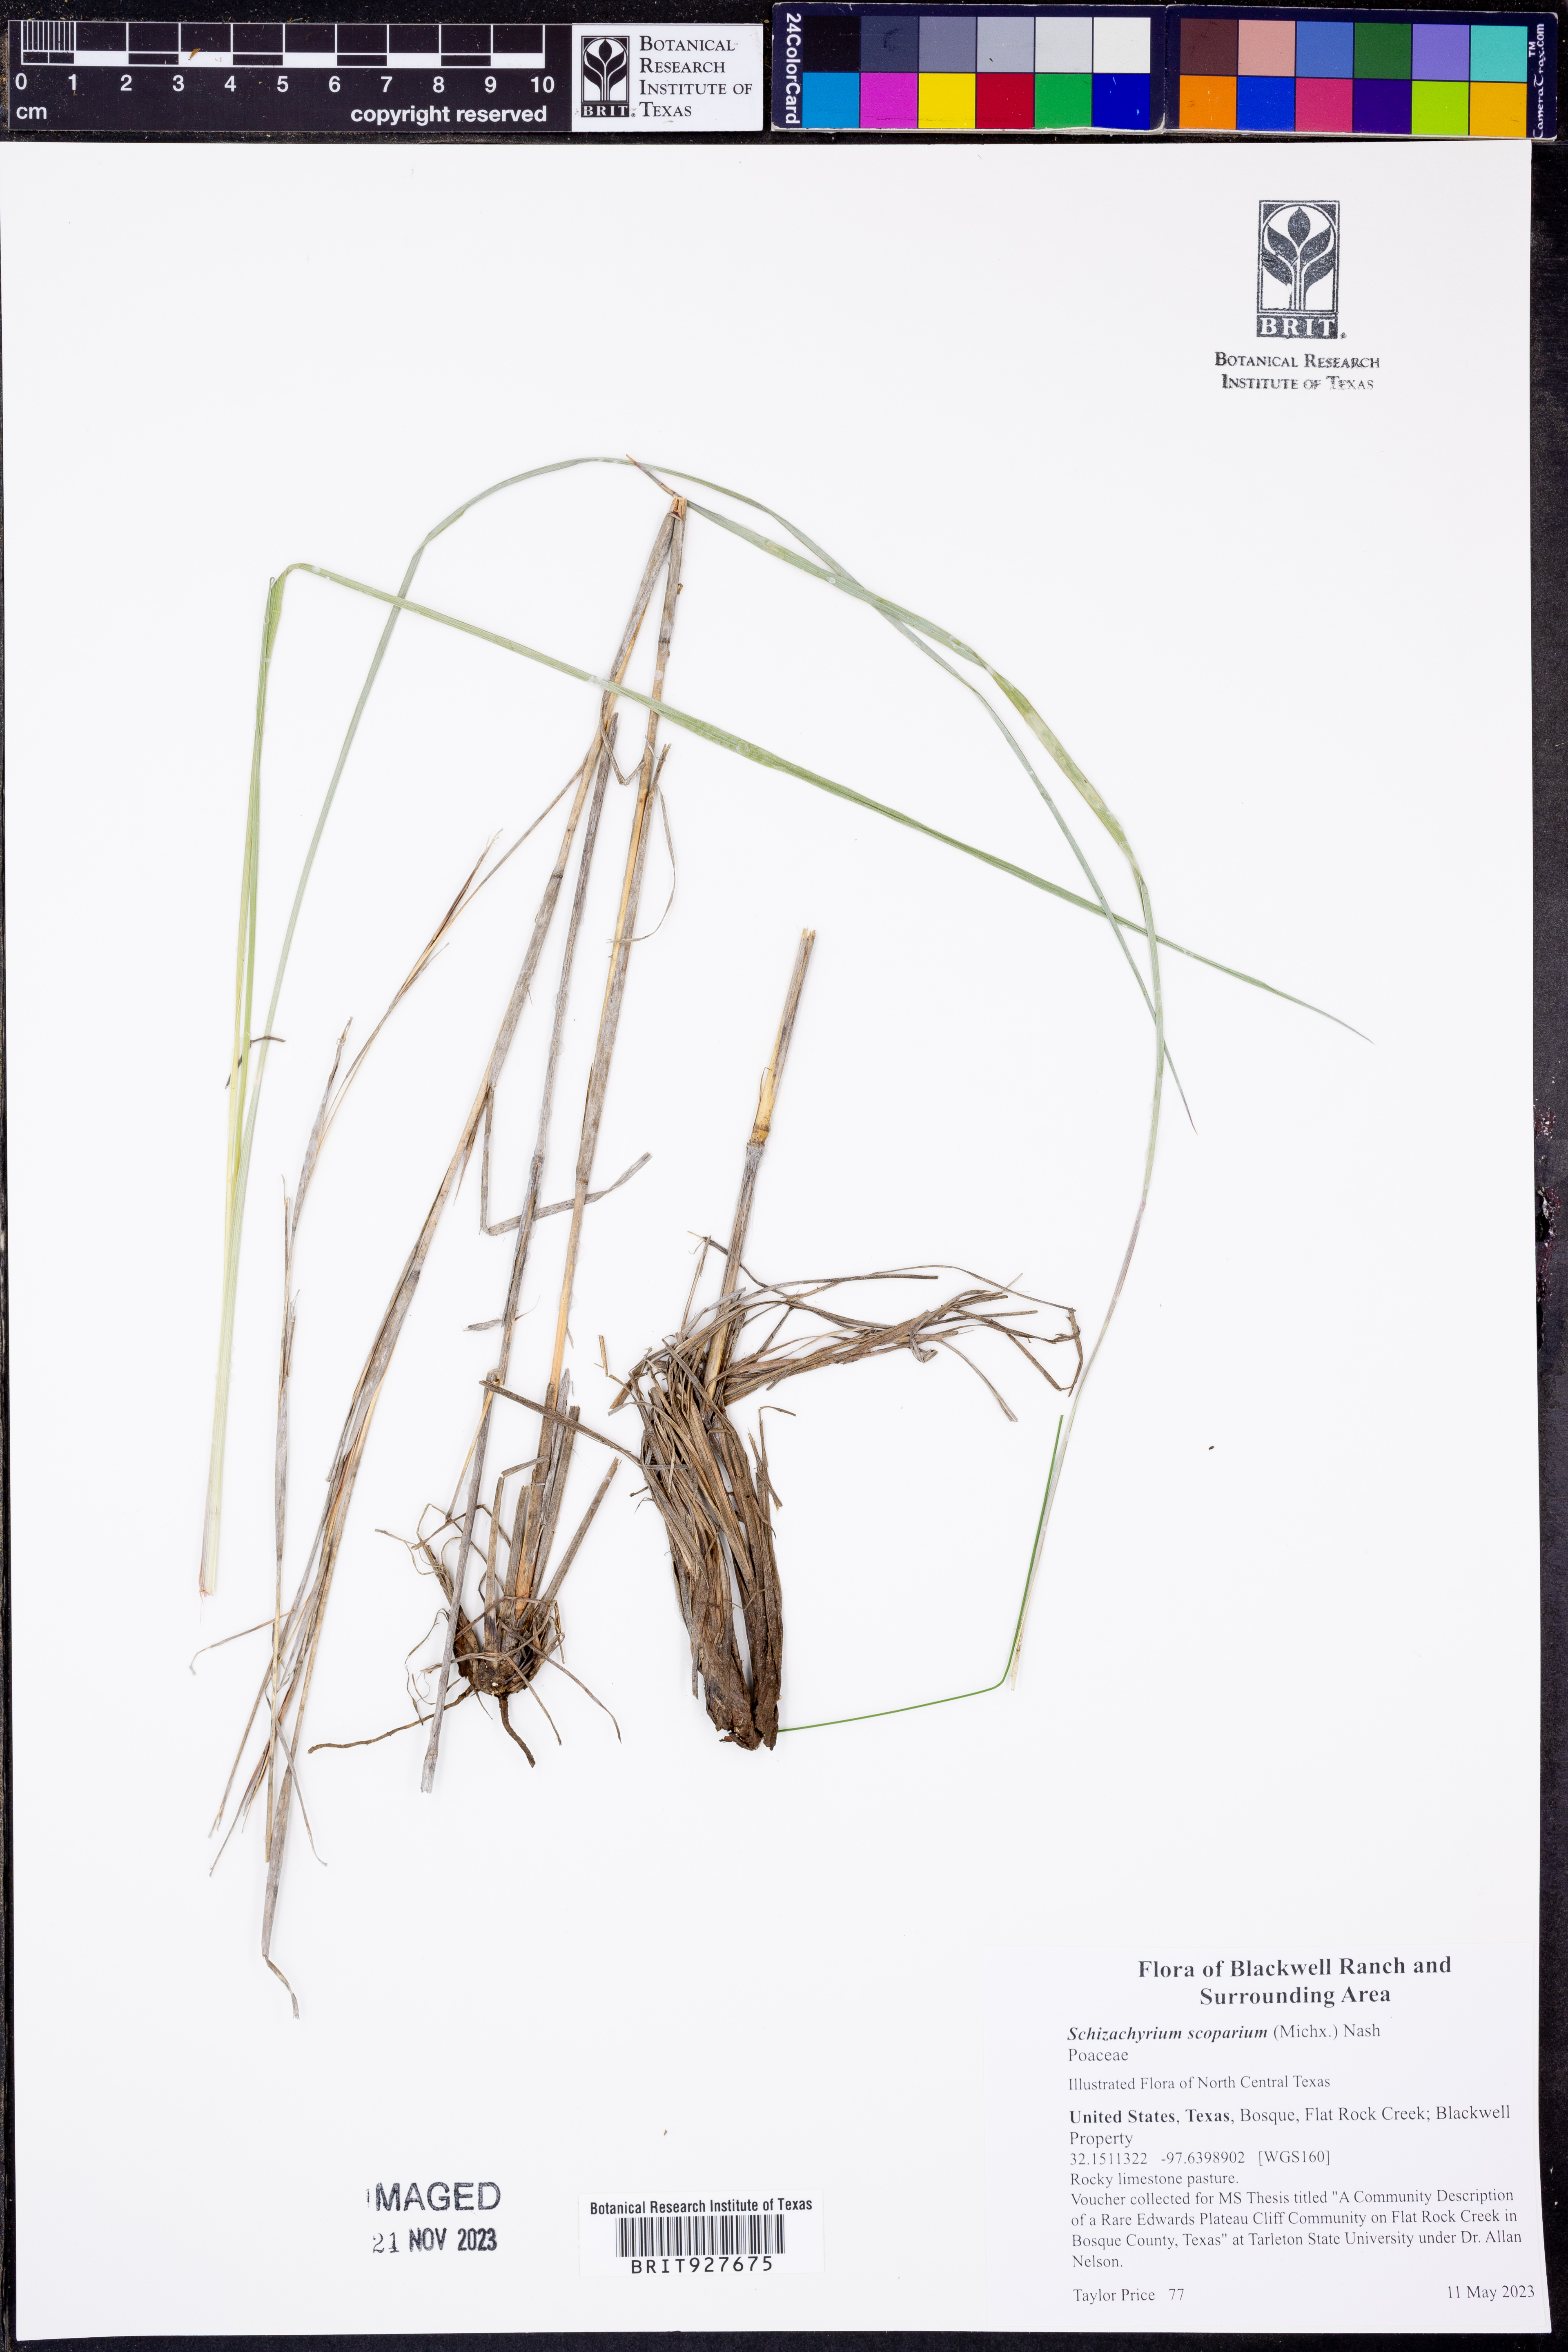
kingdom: Plantae
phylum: Tracheophyta
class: Liliopsida
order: Poales
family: Poaceae
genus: Schizachyrium
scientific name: Schizachyrium scoparium
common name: Little bluestem
